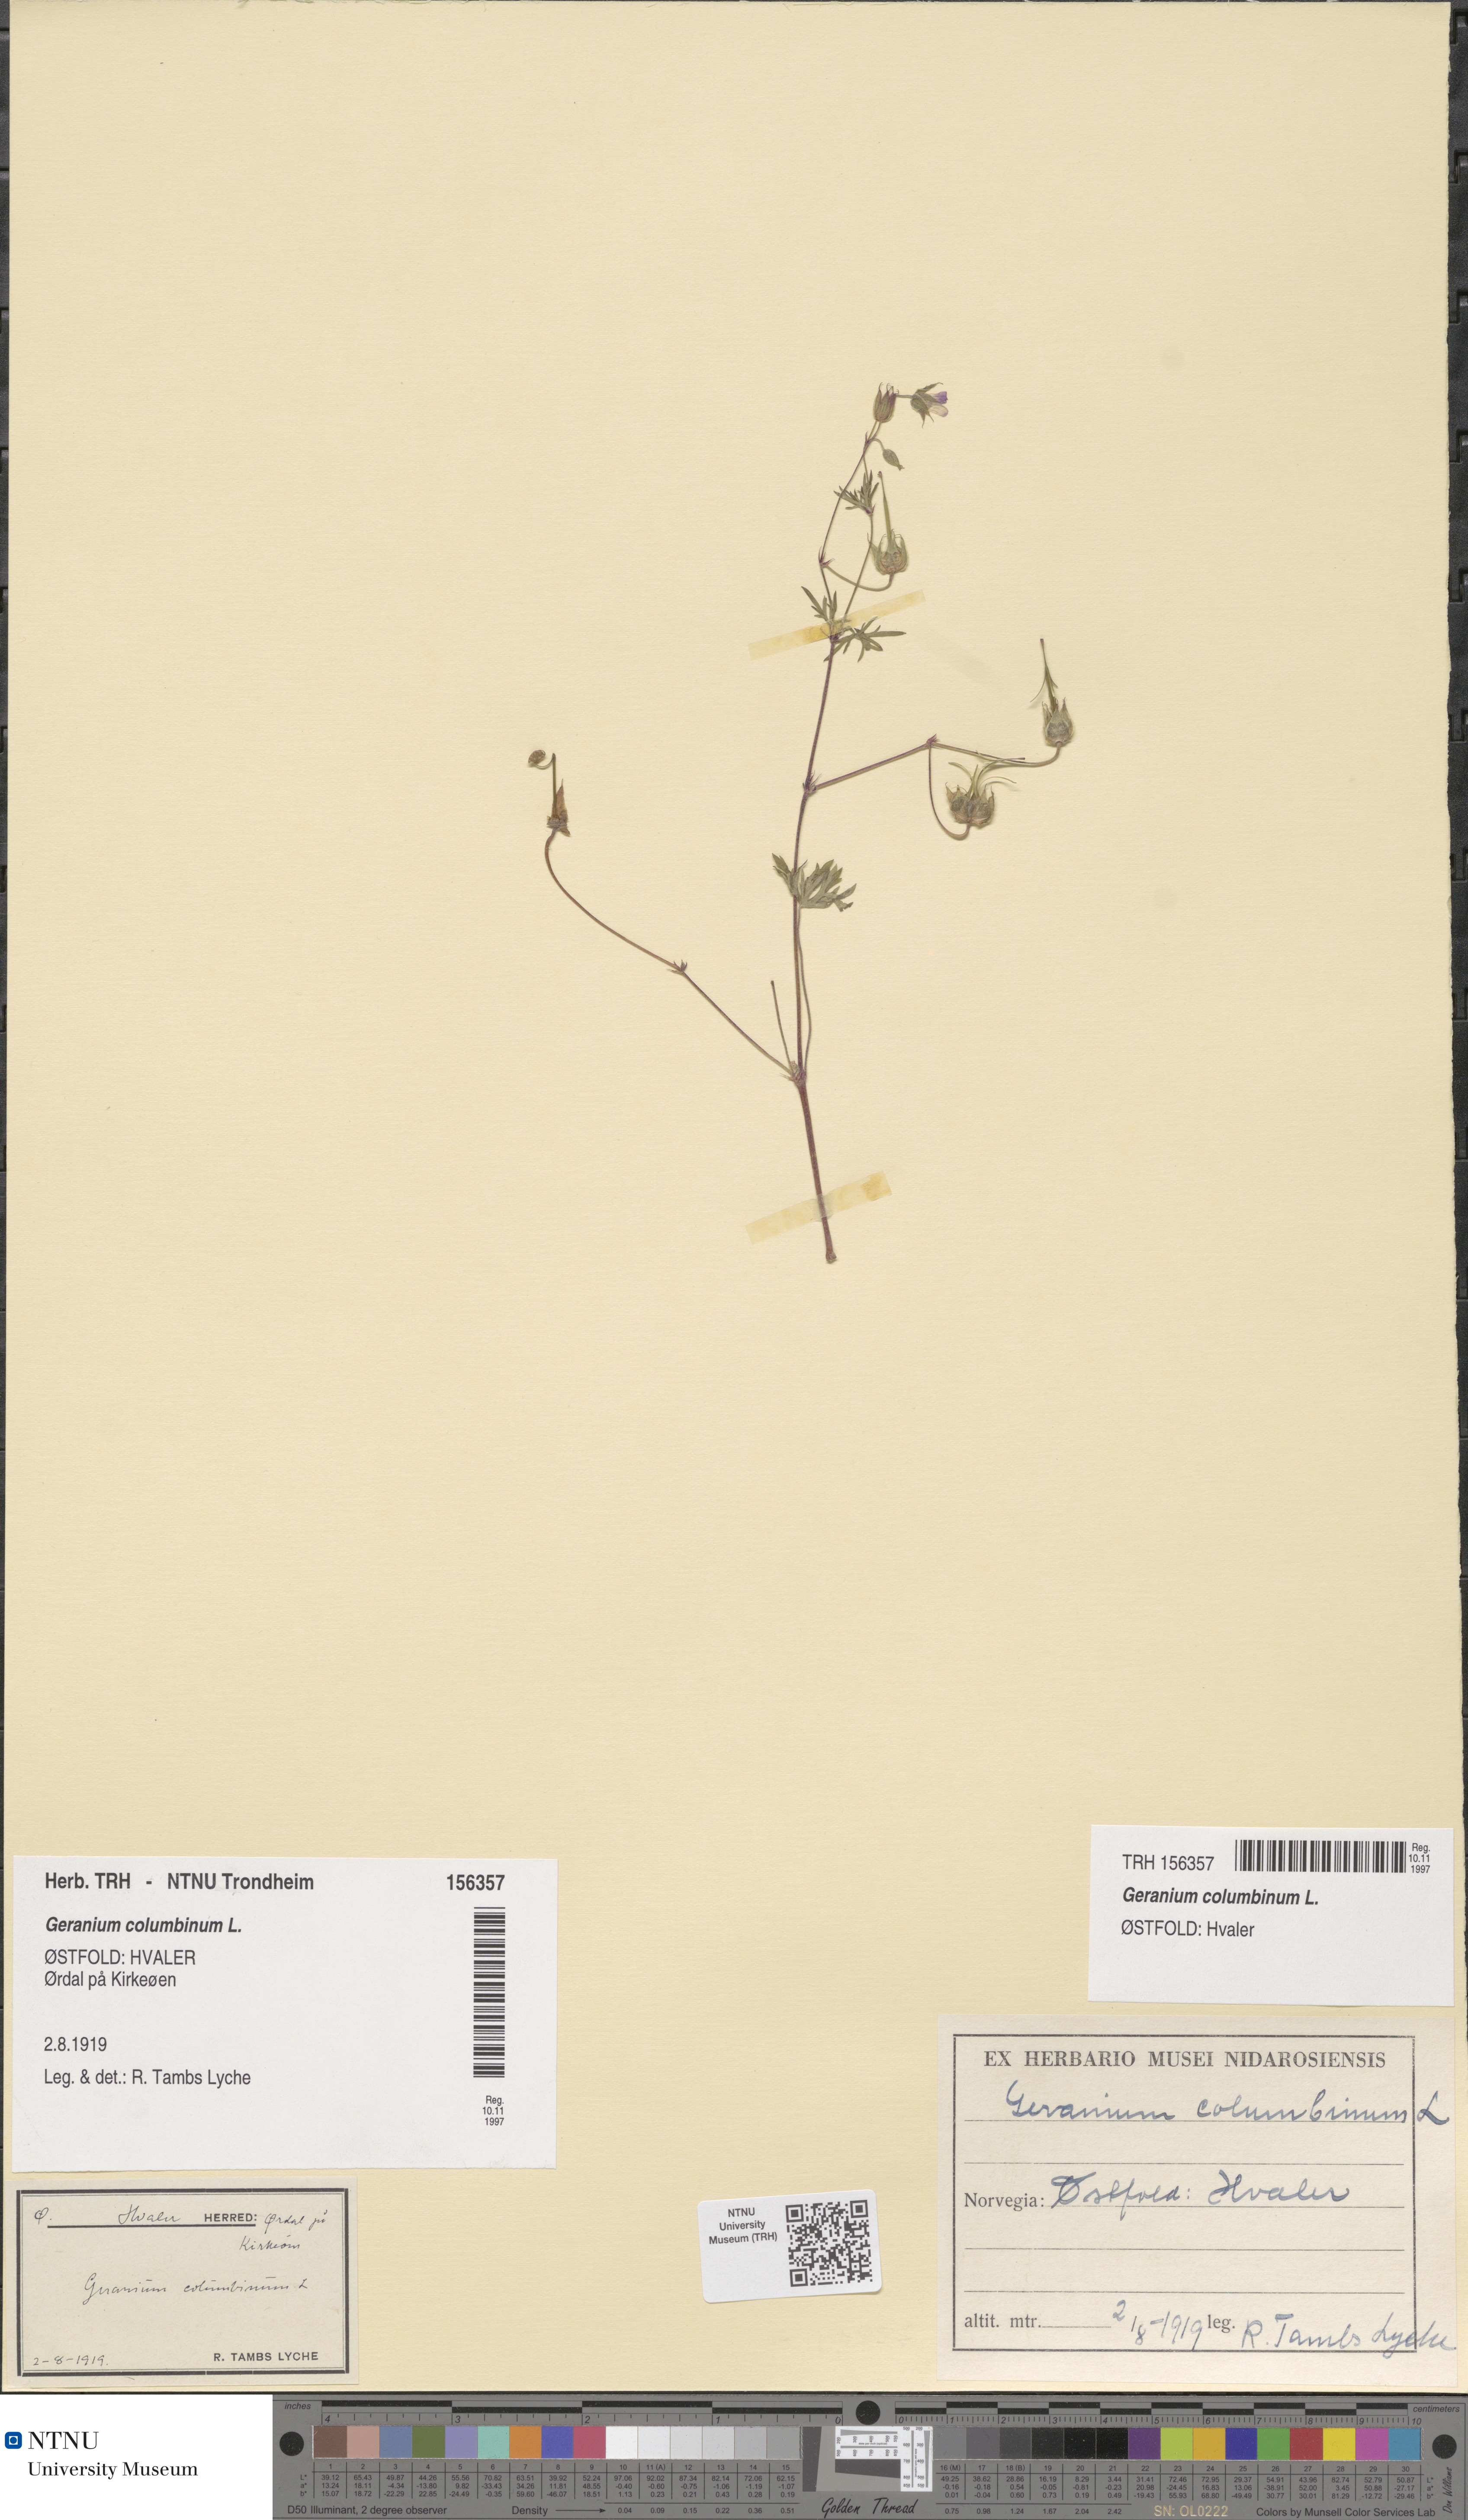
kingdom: Plantae
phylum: Tracheophyta
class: Magnoliopsida
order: Geraniales
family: Geraniaceae
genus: Geranium
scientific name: Geranium columbinum
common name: Long-stalked crane's-bill
